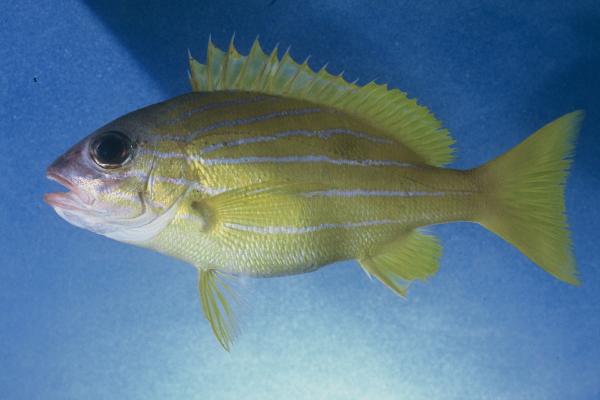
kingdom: Animalia
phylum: Chordata
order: Perciformes
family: Lutjanidae
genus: Lutjanus
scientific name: Lutjanus notatus
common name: Bluestriped snapper
